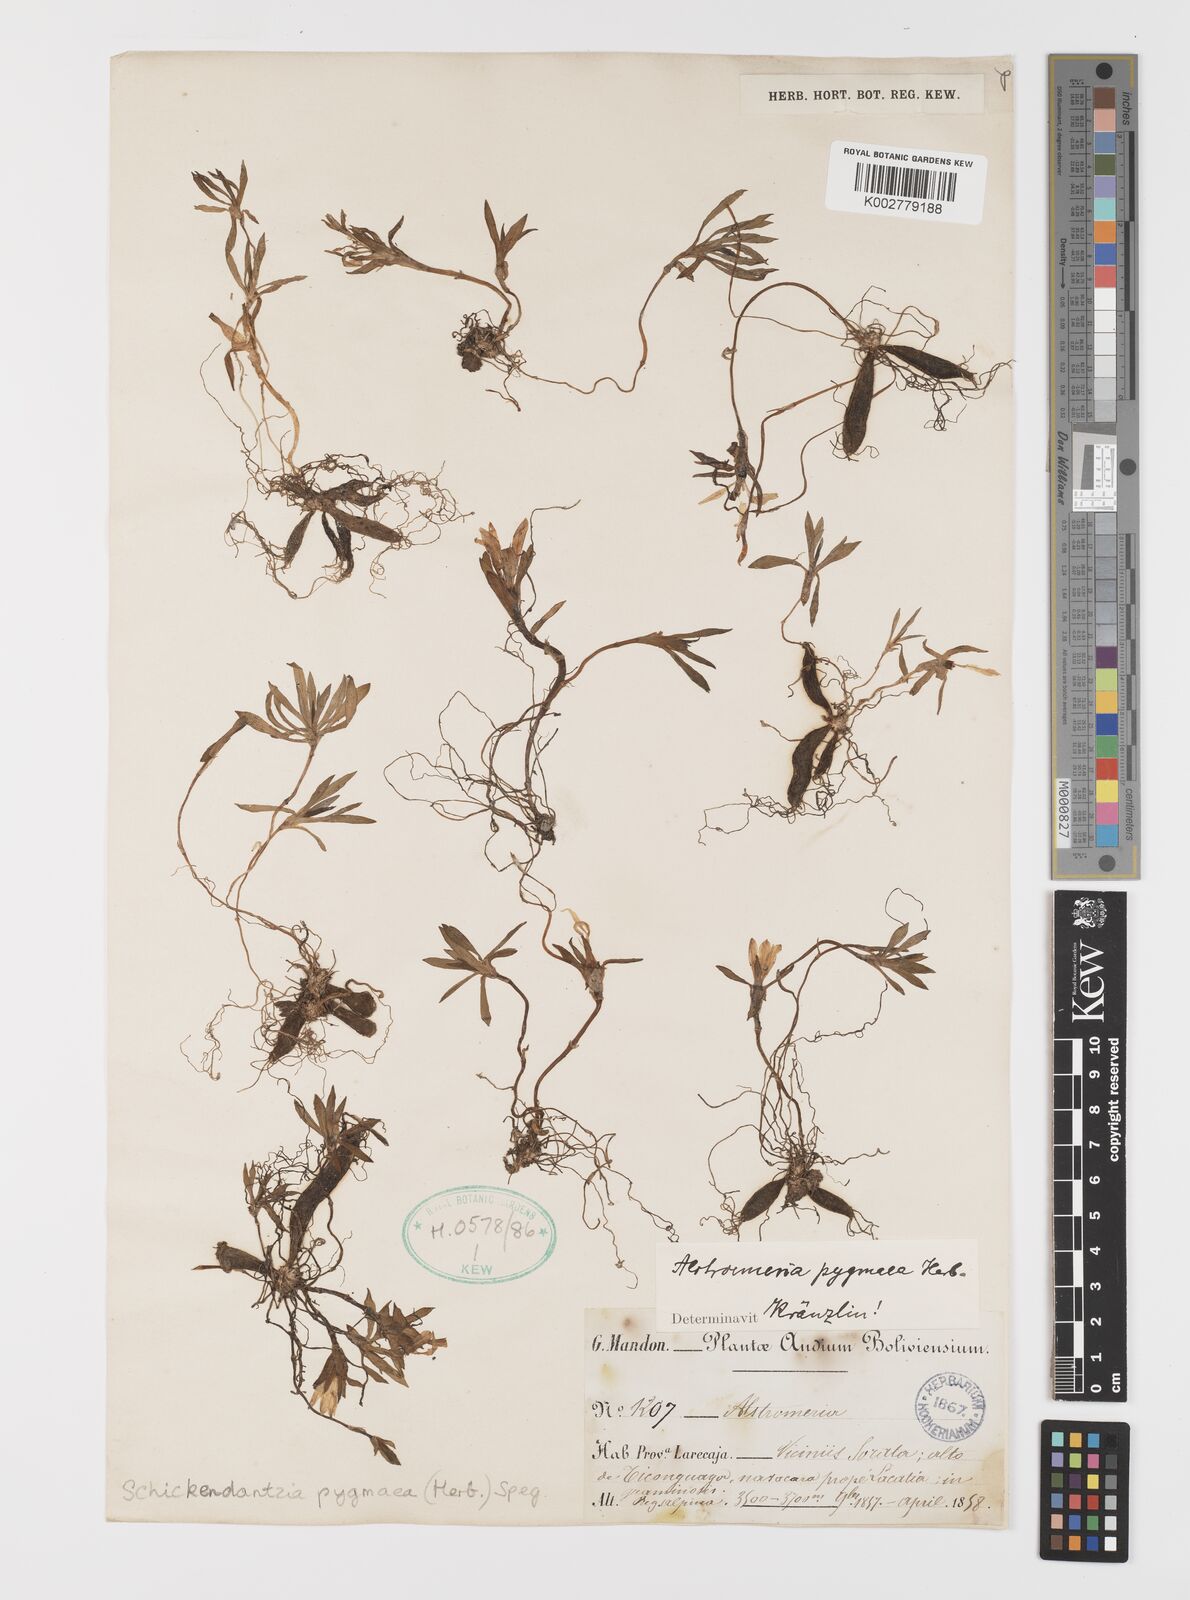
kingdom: Plantae
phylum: Tracheophyta
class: Liliopsida
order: Liliales
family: Alstroemeriaceae
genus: Alstroemeria
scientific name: Alstroemeria pygmaea
